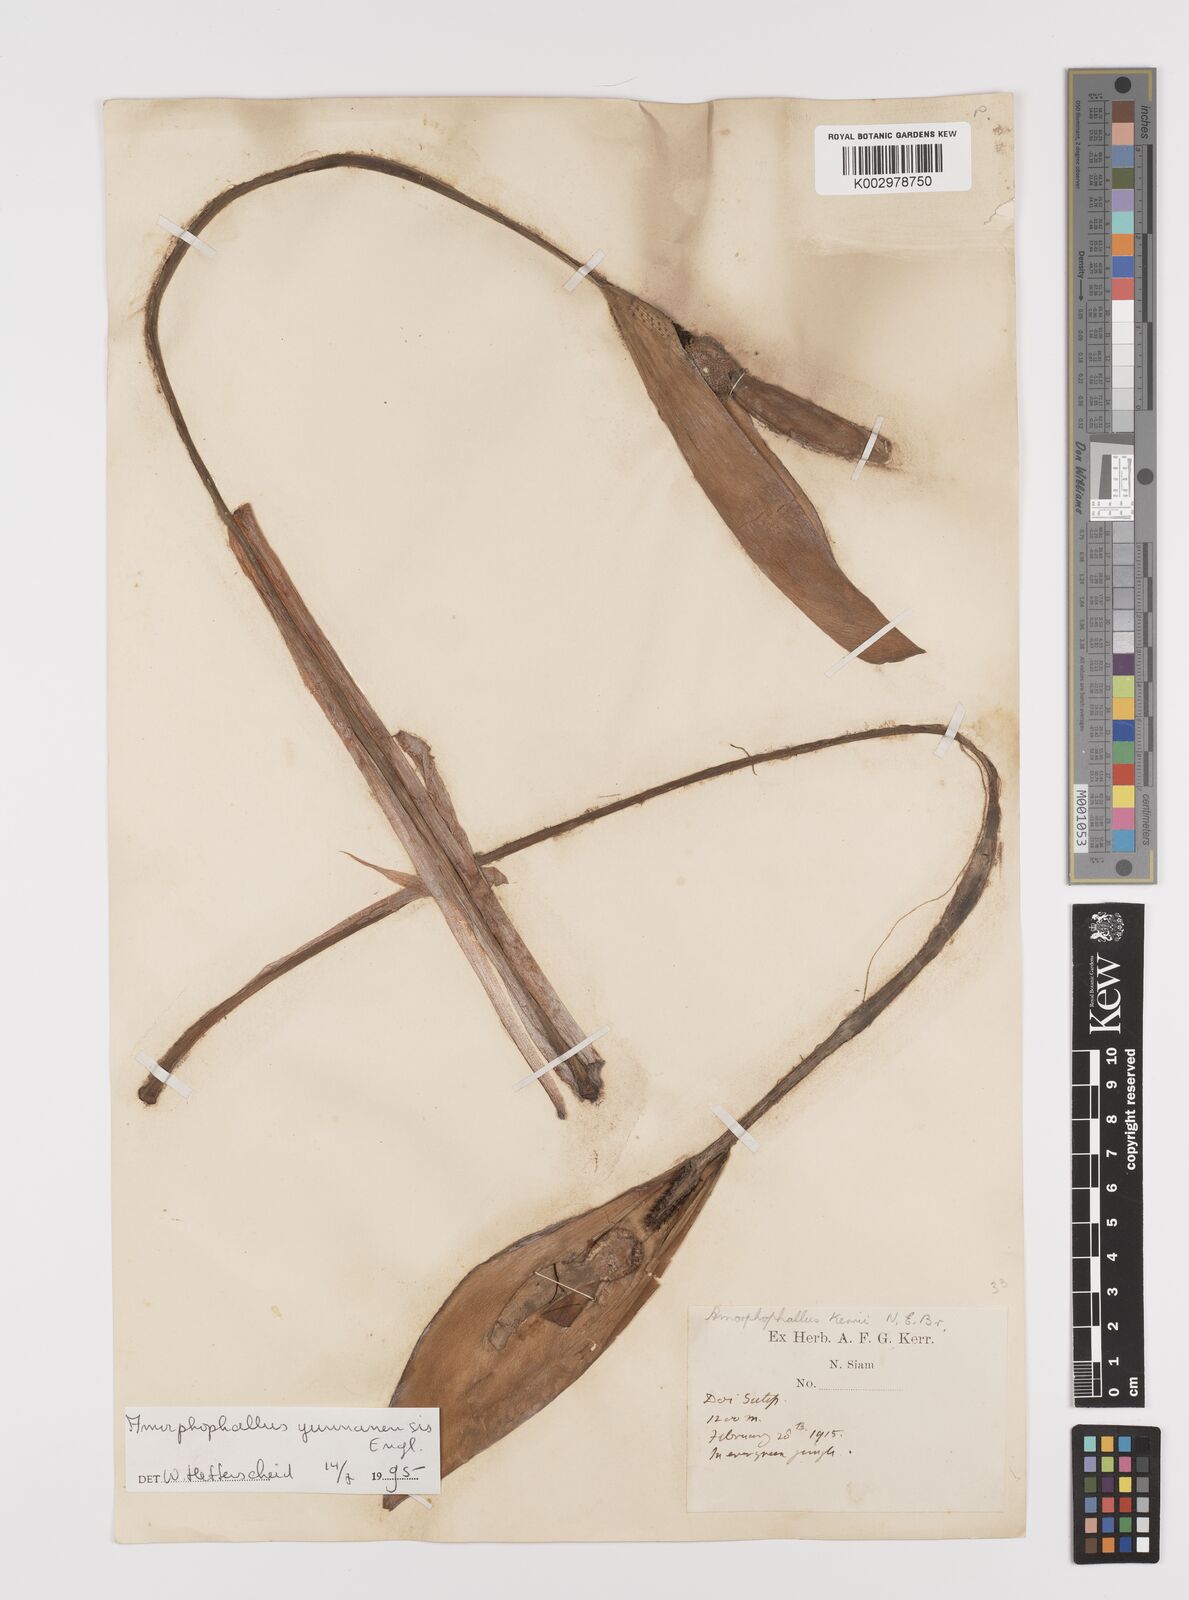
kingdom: Plantae
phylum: Tracheophyta
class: Liliopsida
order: Alismatales
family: Araceae
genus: Amorphophallus
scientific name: Amorphophallus yunnanensis
